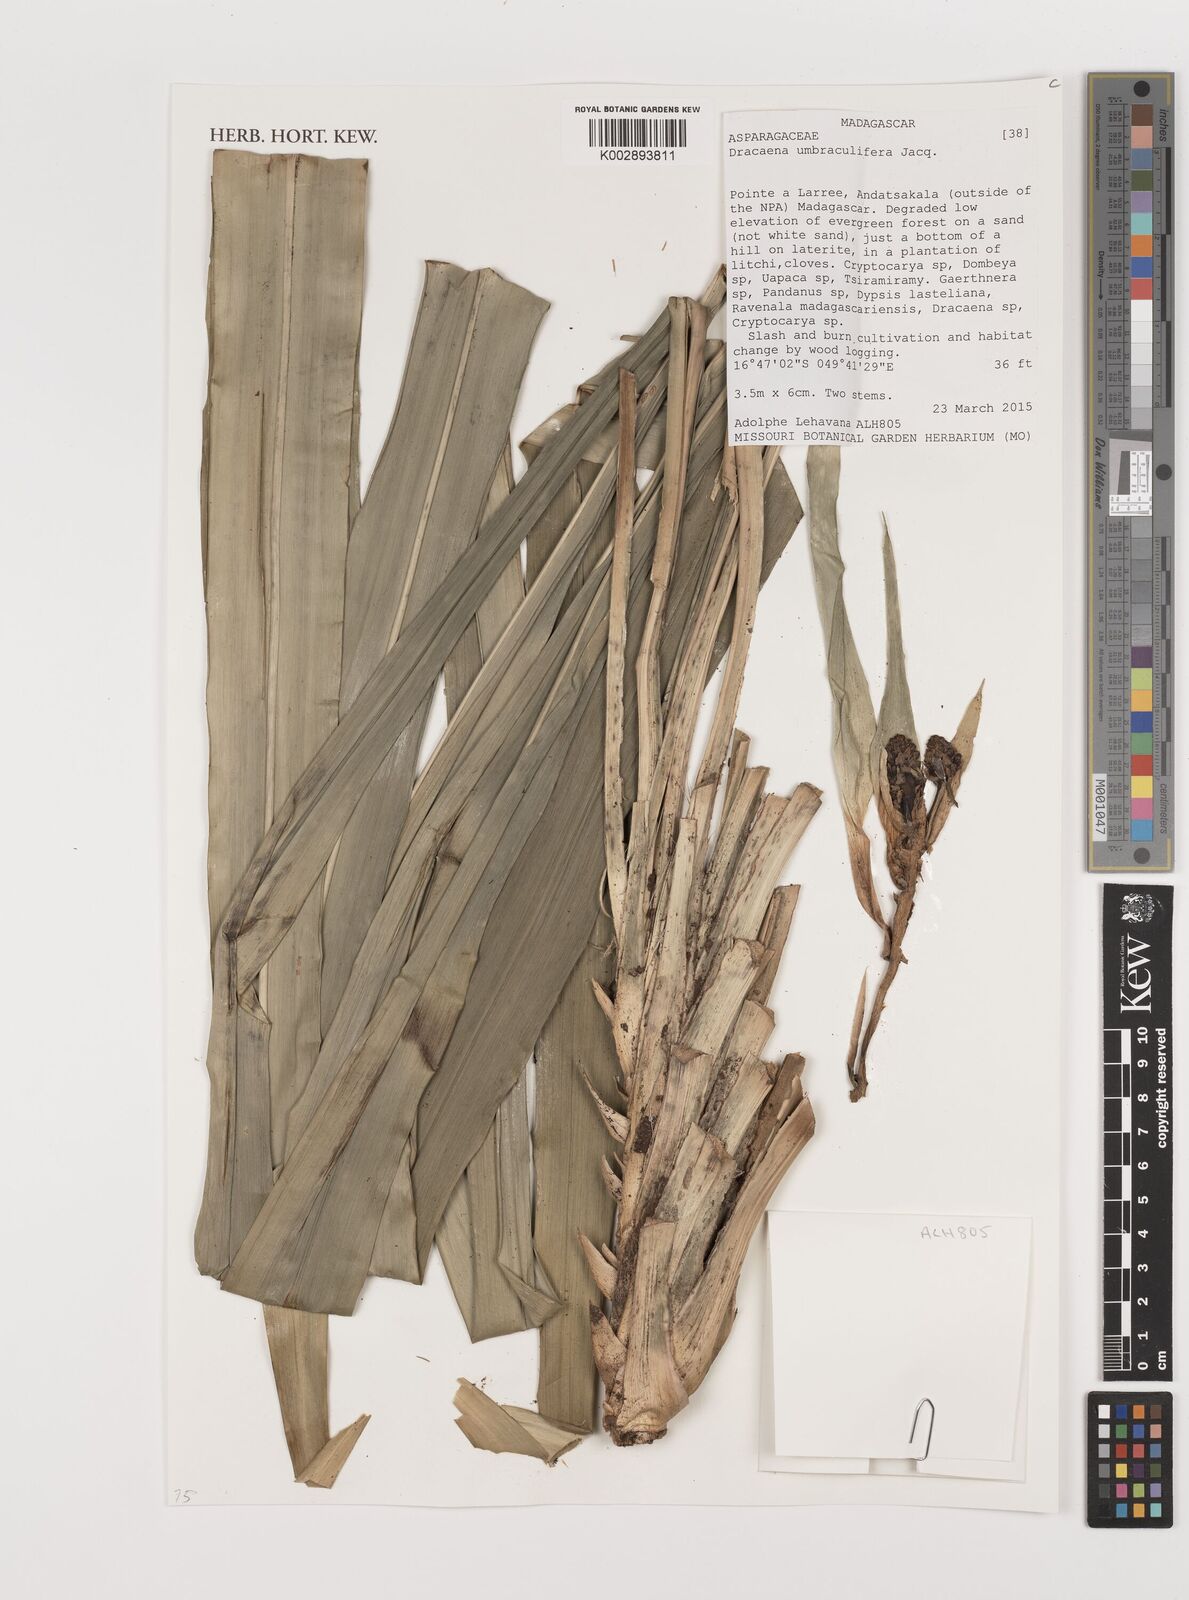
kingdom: Plantae
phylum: Tracheophyta
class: Liliopsida
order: Asparagales
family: Asparagaceae
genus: Dracaena
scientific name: Dracaena umbraculifera
